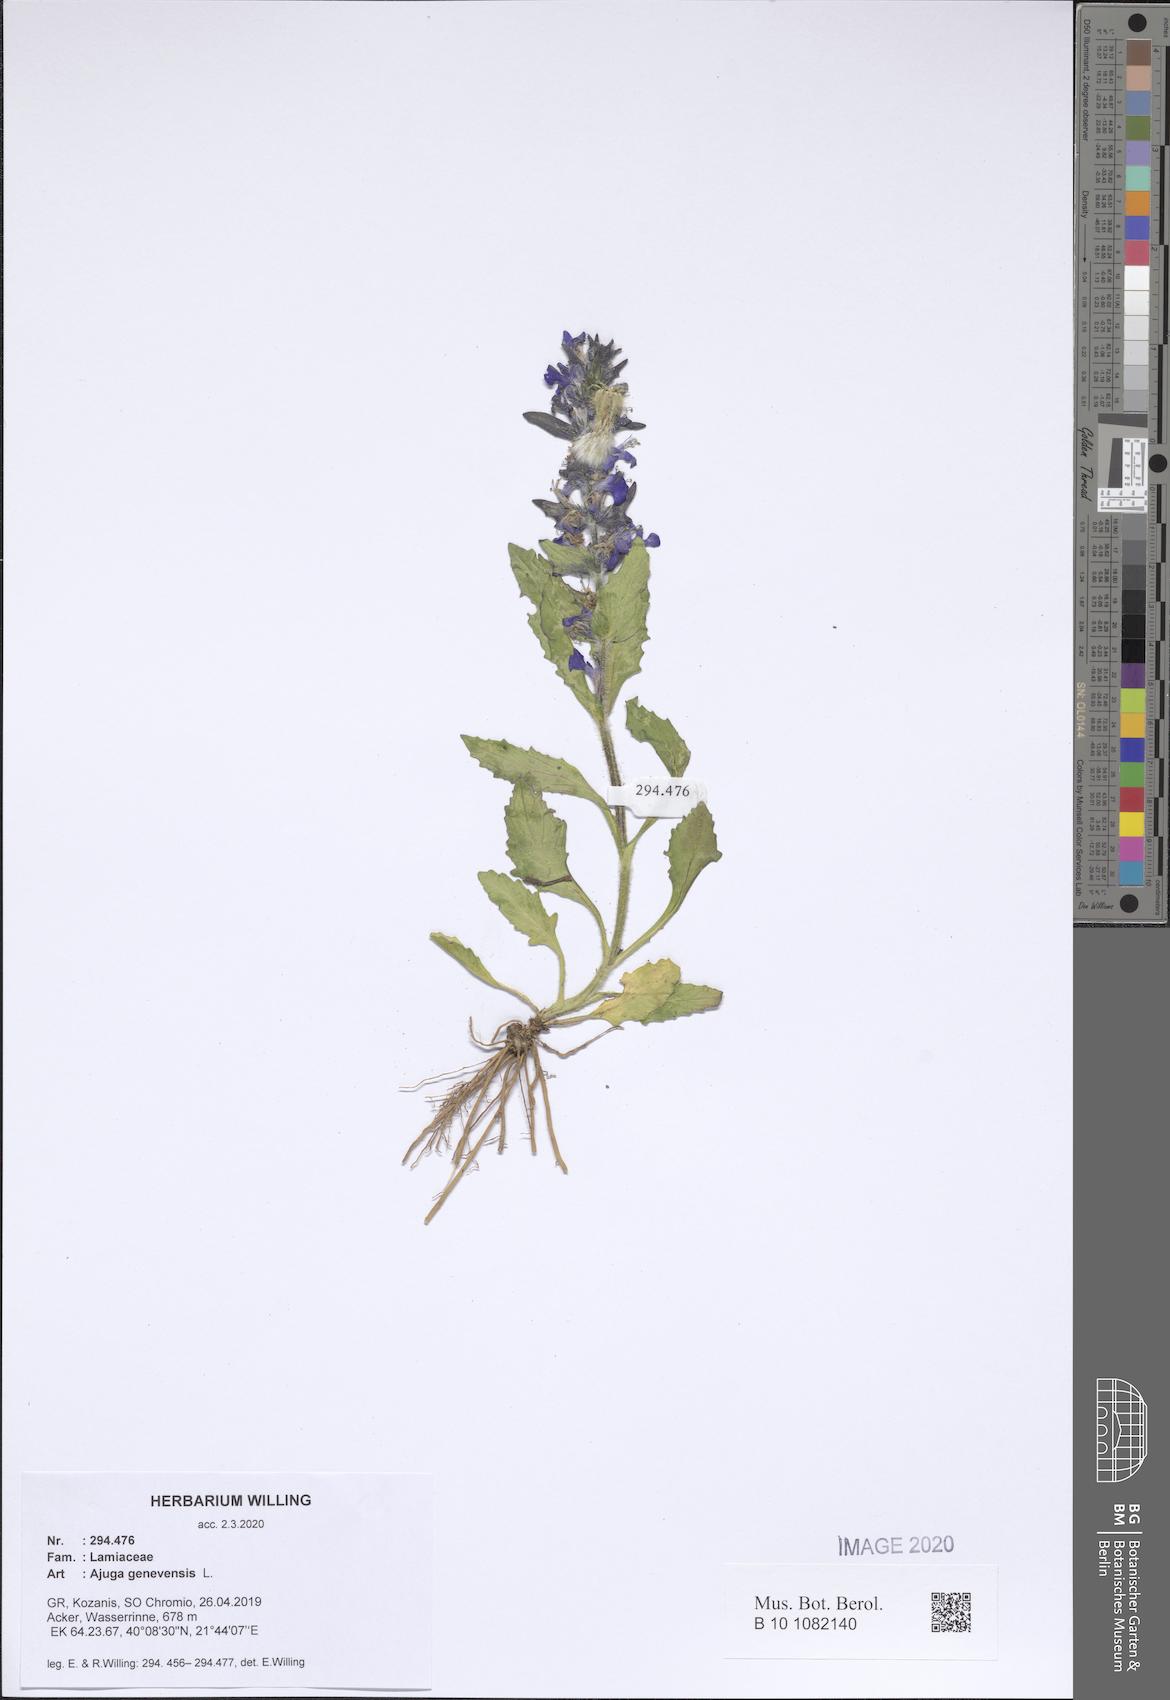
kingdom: Plantae
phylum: Tracheophyta
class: Magnoliopsida
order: Lamiales
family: Lamiaceae
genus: Ajuga
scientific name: Ajuga genevensis
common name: Blue bugle
